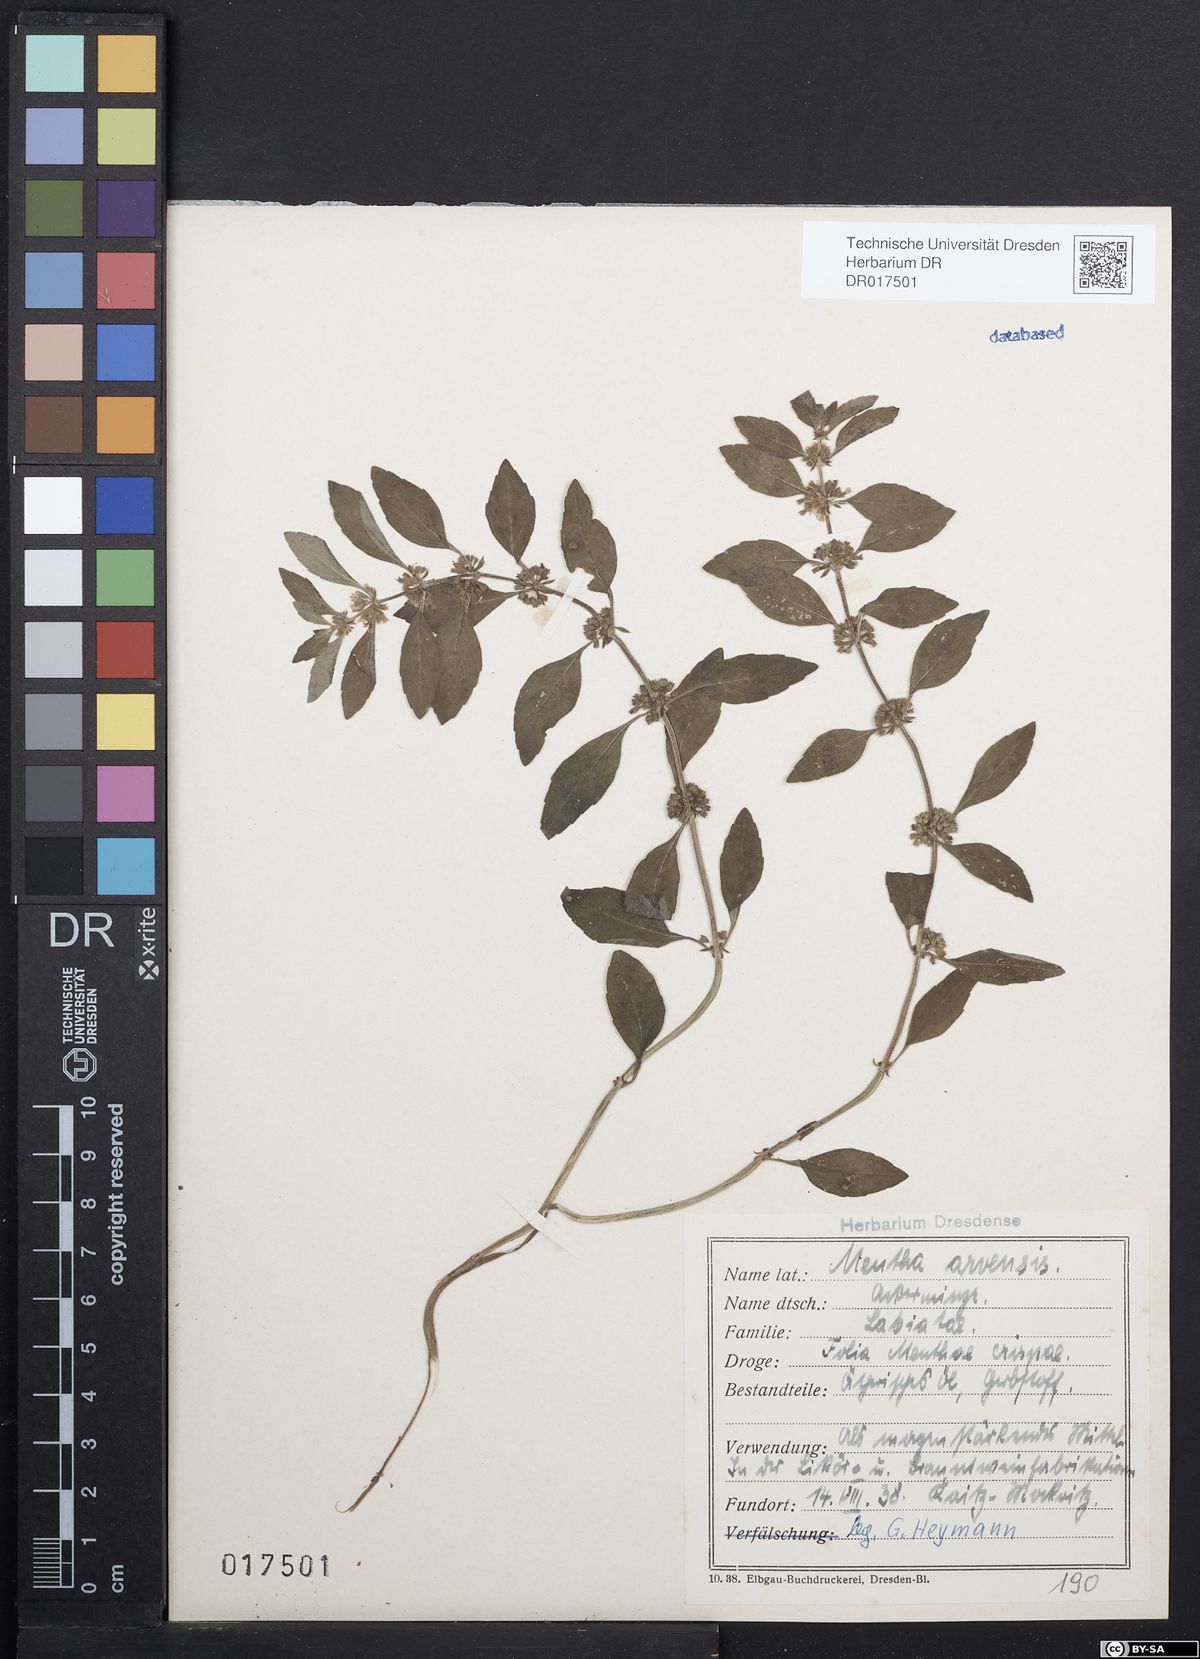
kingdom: Plantae
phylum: Tracheophyta
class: Magnoliopsida
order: Lamiales
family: Lamiaceae
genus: Mentha
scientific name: Mentha arvensis
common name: Corn mint
